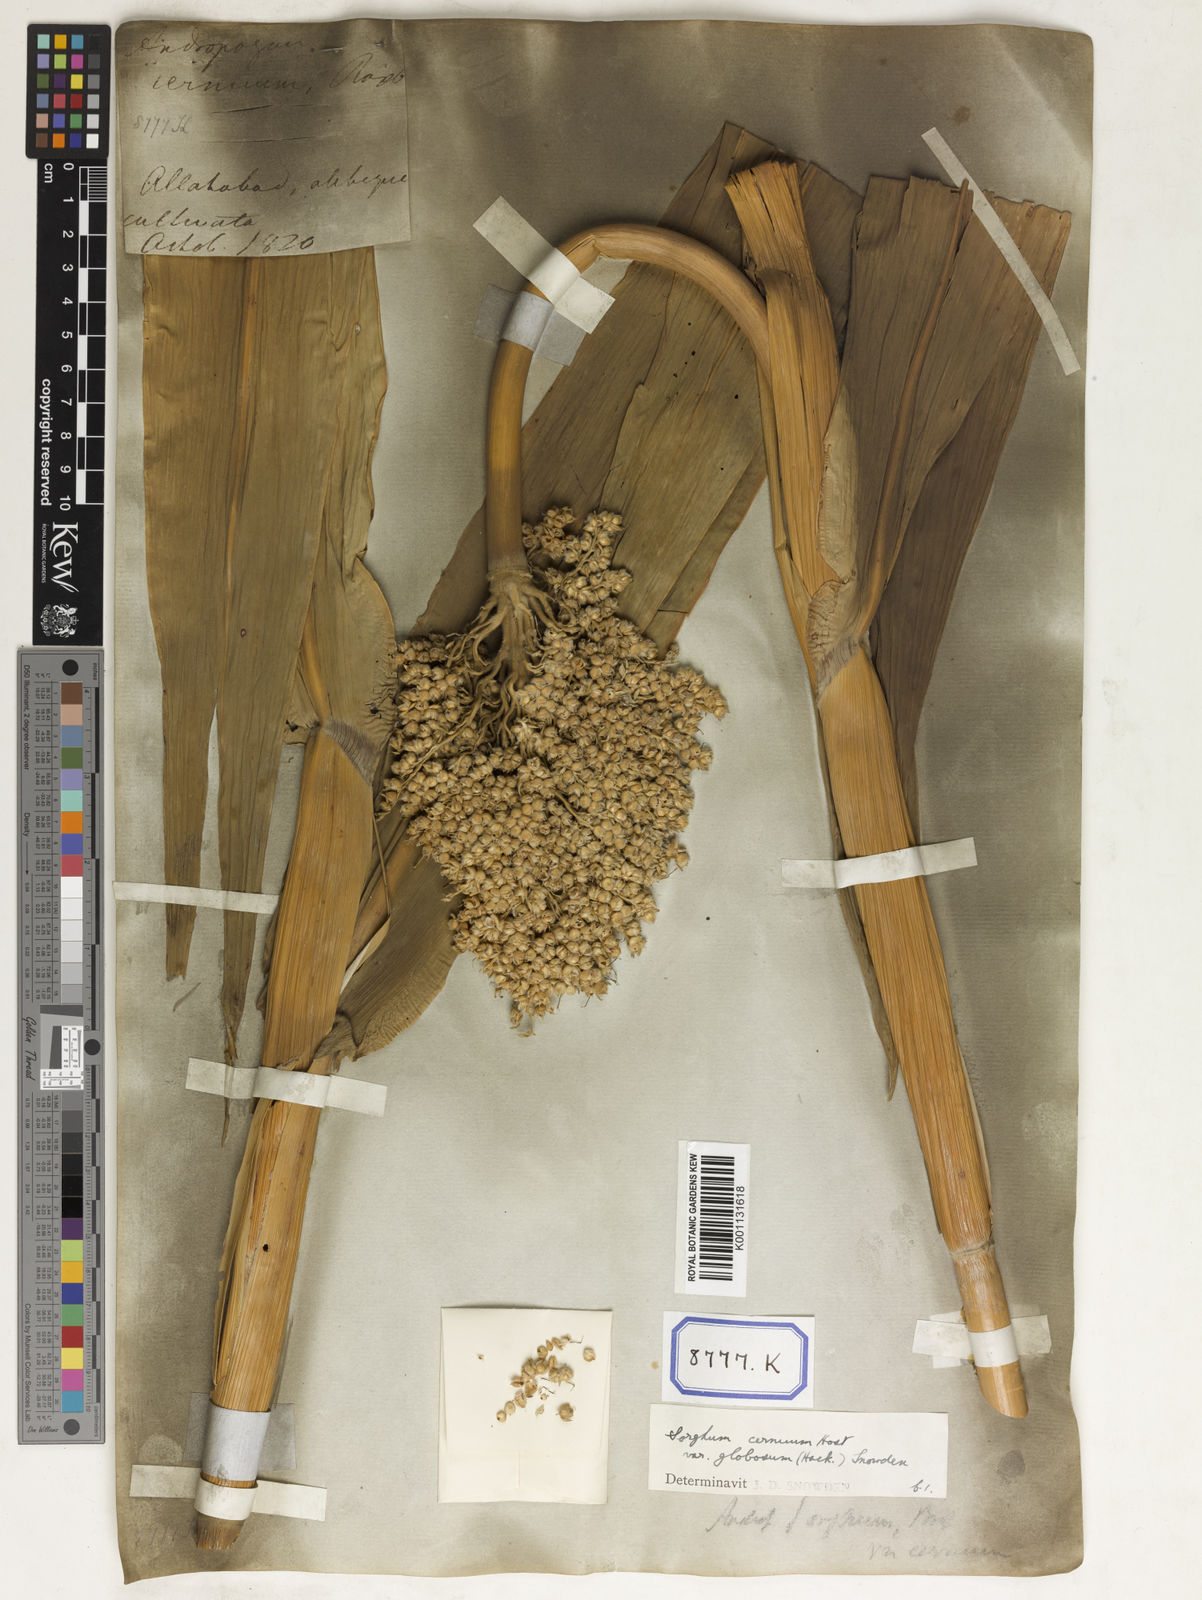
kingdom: Plantae
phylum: Tracheophyta
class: Liliopsida
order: Poales
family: Poaceae
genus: Sorghum
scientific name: Sorghum bicolor
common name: Sorghum
